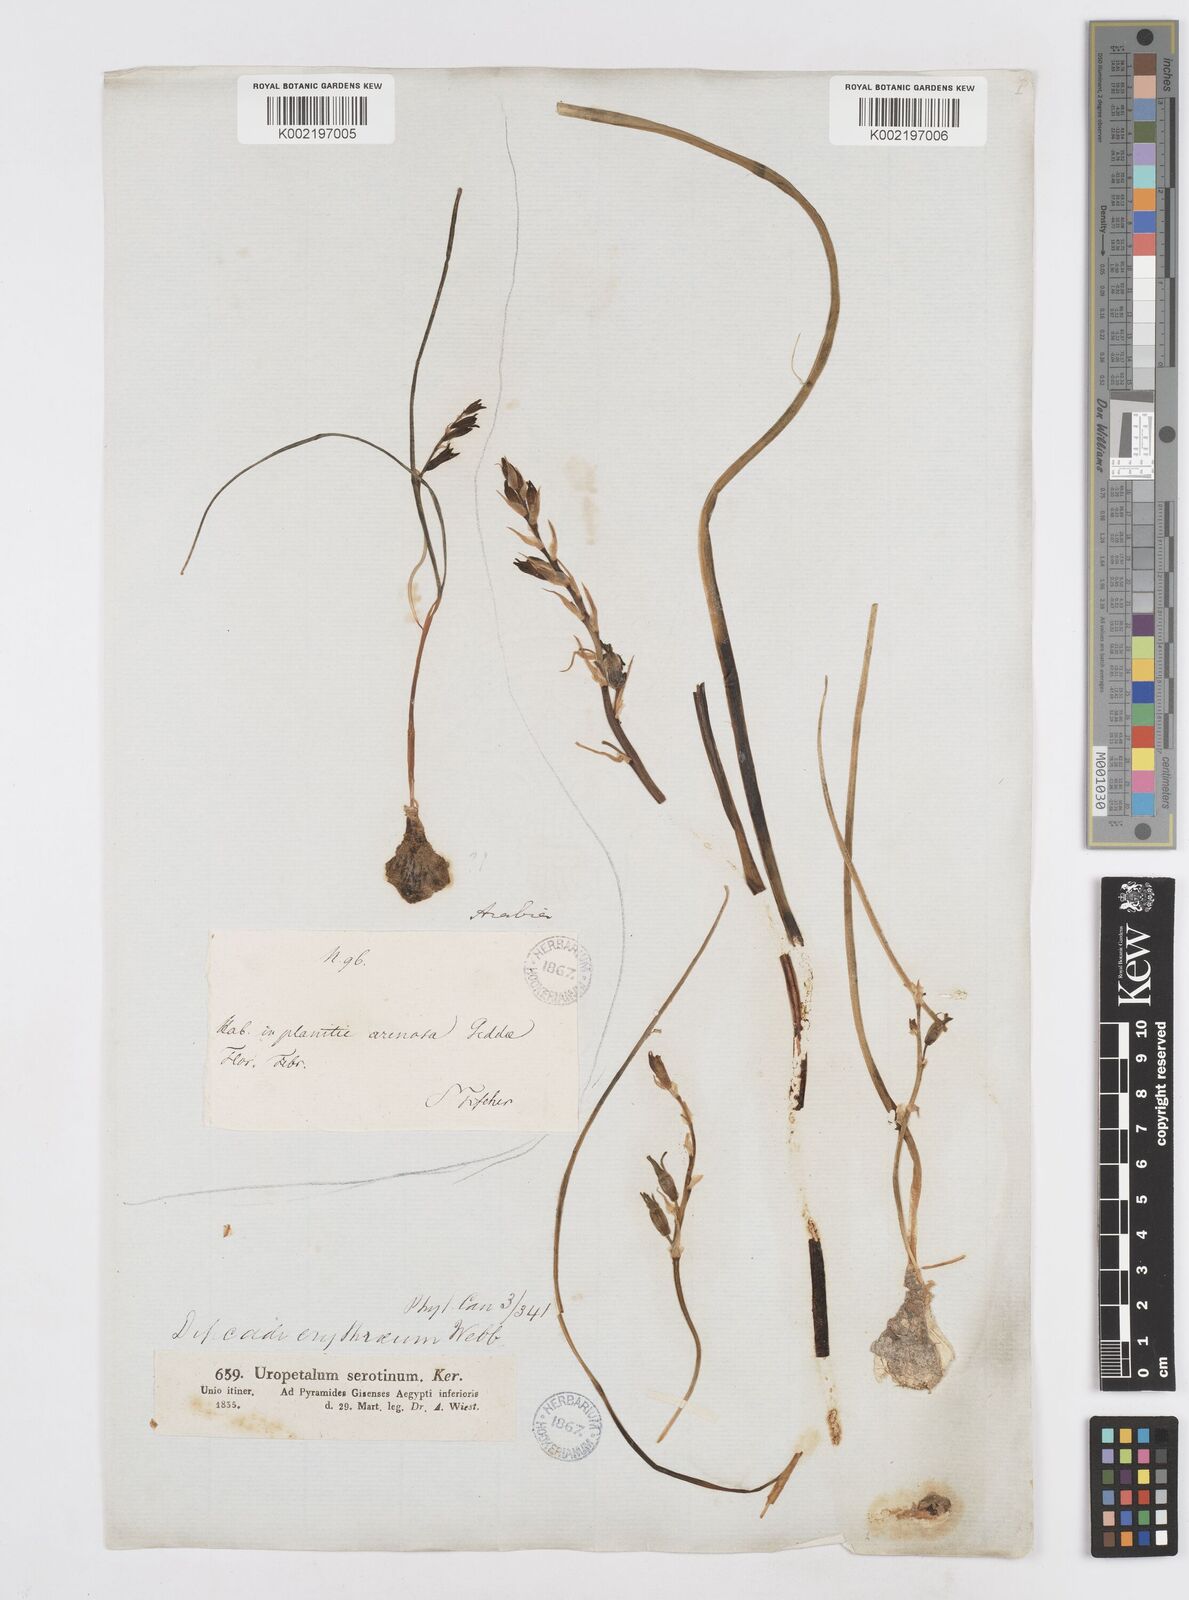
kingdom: Plantae
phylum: Tracheophyta
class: Liliopsida
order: Asparagales
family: Asparagaceae
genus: Dipcadi
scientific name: Dipcadi erythraeum
